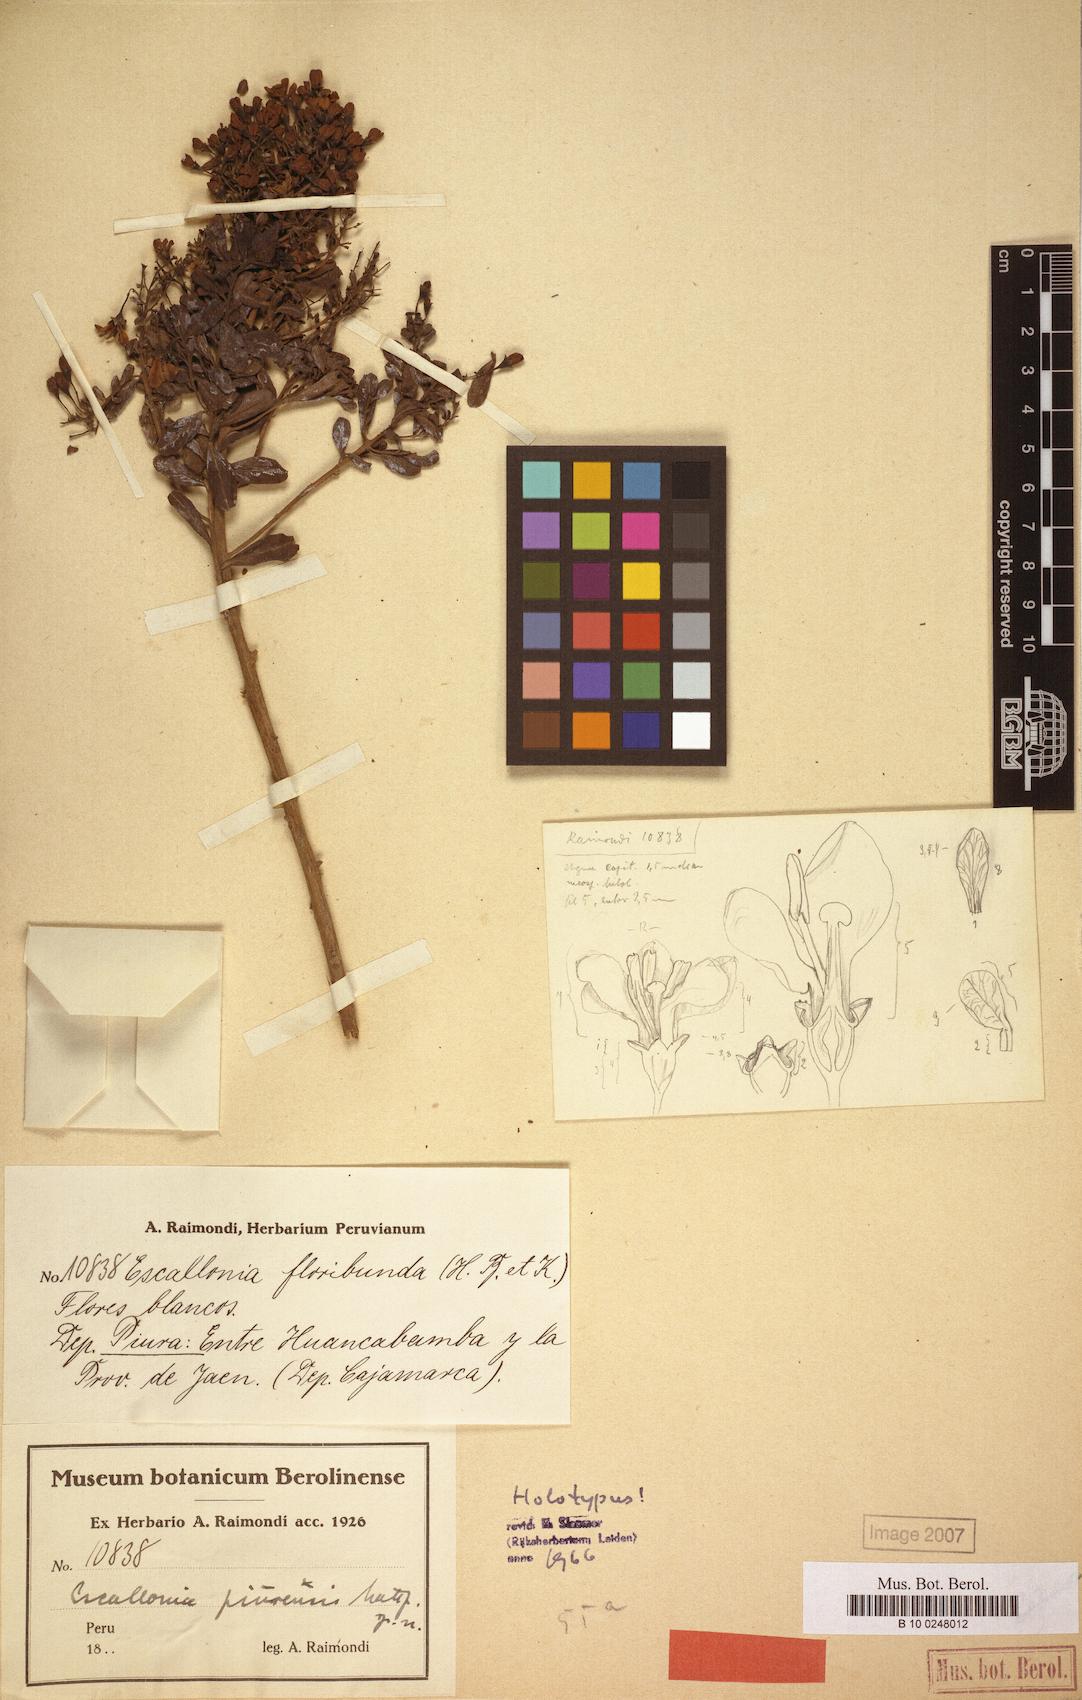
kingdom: Plantae
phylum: Tracheophyta
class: Magnoliopsida
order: Escalloniales
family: Escalloniaceae
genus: Escallonia
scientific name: Escallonia piurensis
